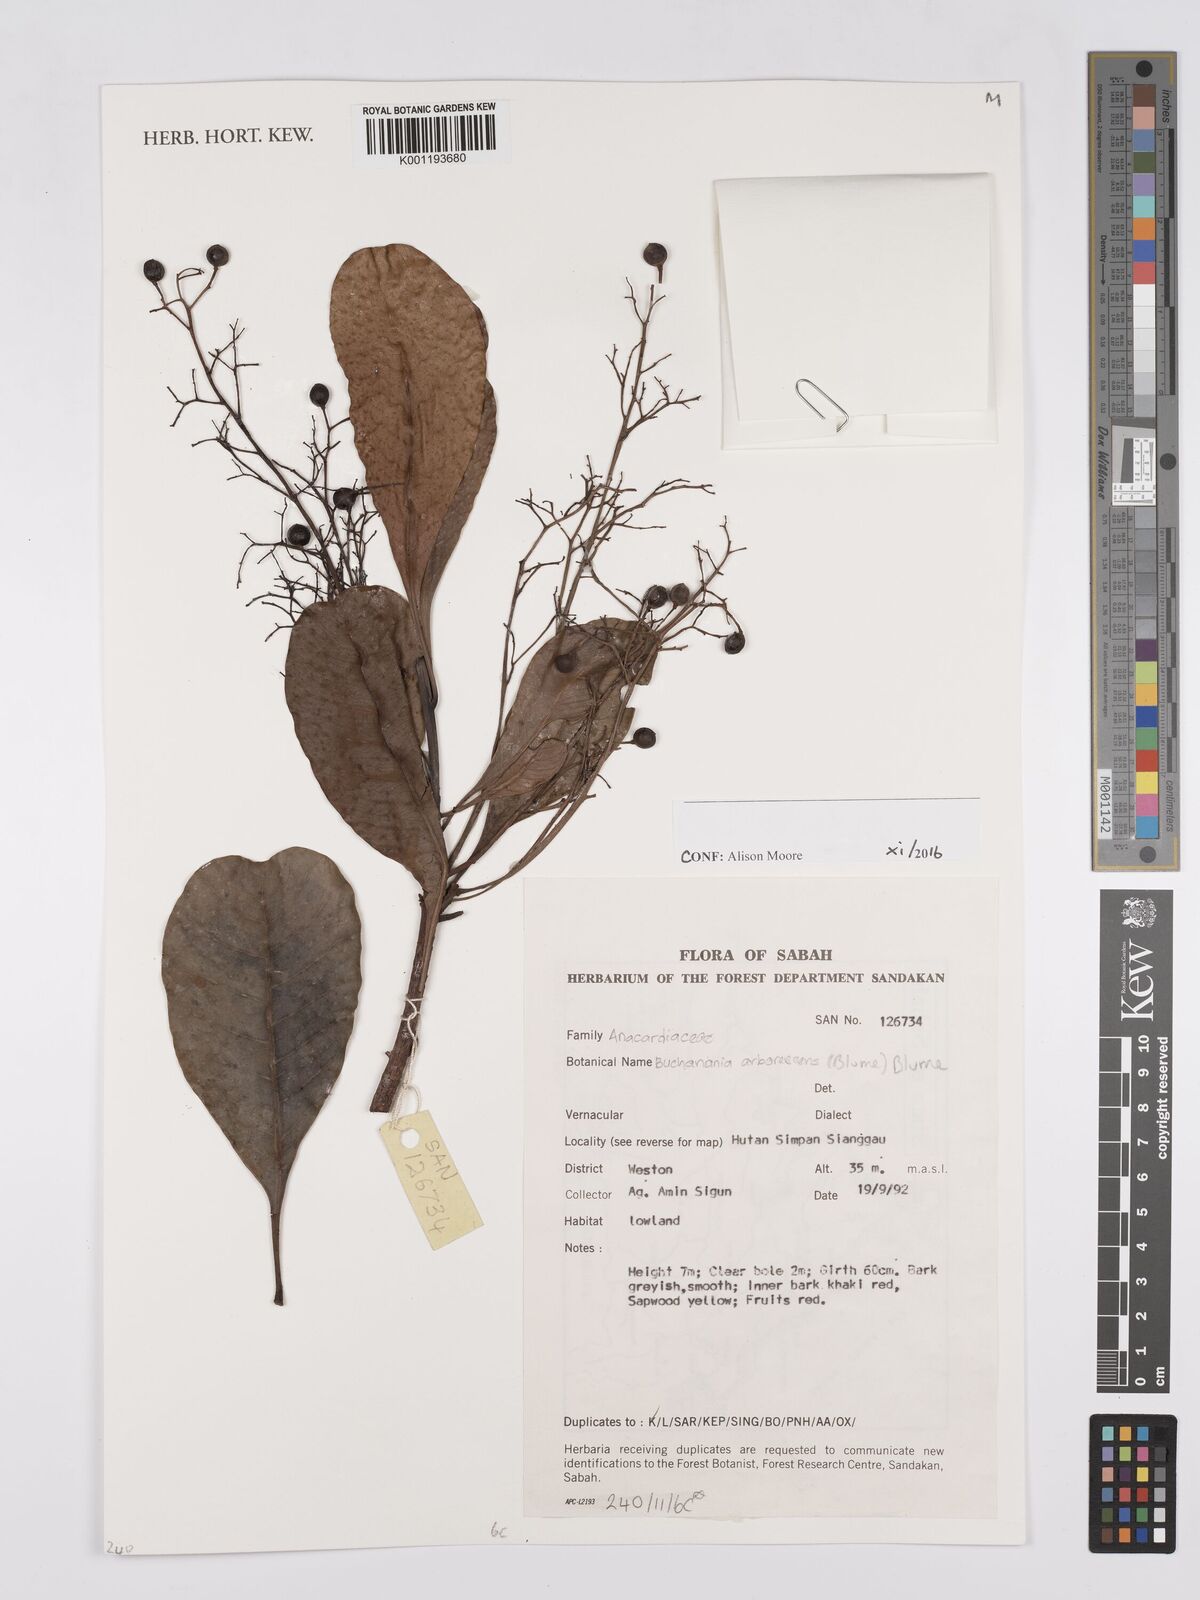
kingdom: Plantae
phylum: Tracheophyta
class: Magnoliopsida
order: Sapindales
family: Anacardiaceae
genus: Buchanania
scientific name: Buchanania arborescens
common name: Sparrow’s mango
